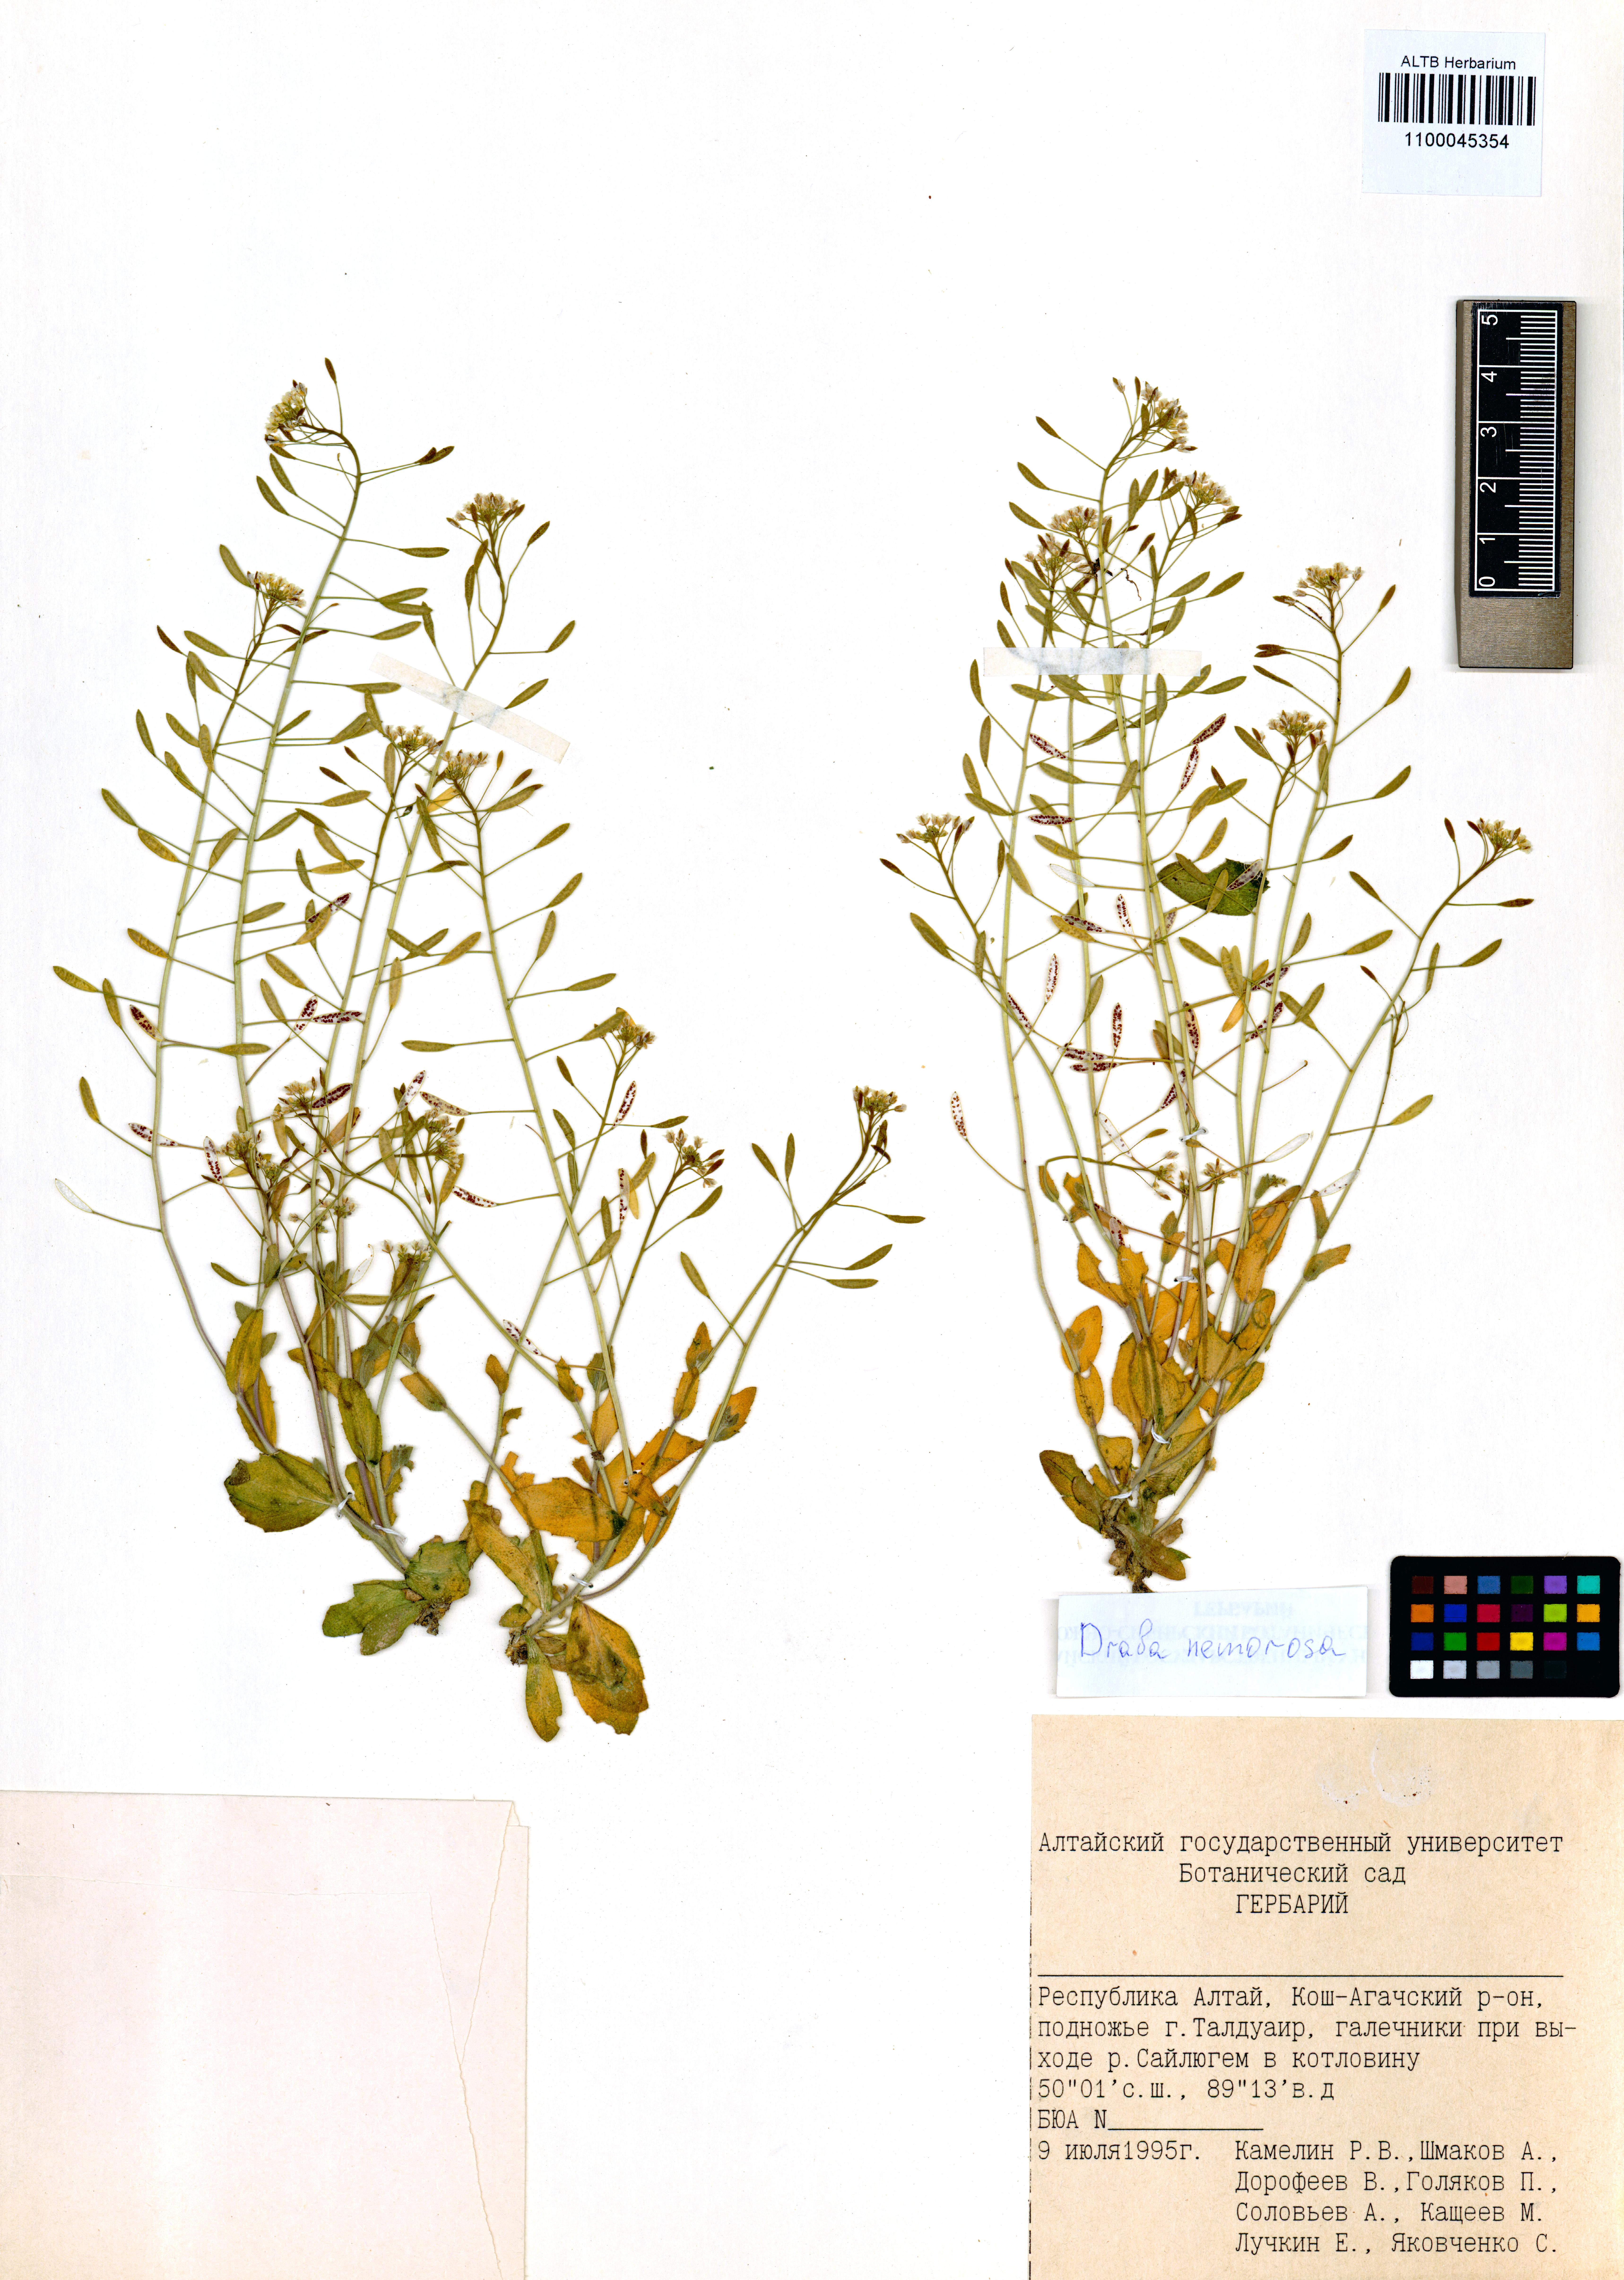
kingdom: Plantae
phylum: Tracheophyta
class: Magnoliopsida
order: Brassicales
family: Brassicaceae
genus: Draba
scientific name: Draba nemorosa
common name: Wood whitlow-grass
